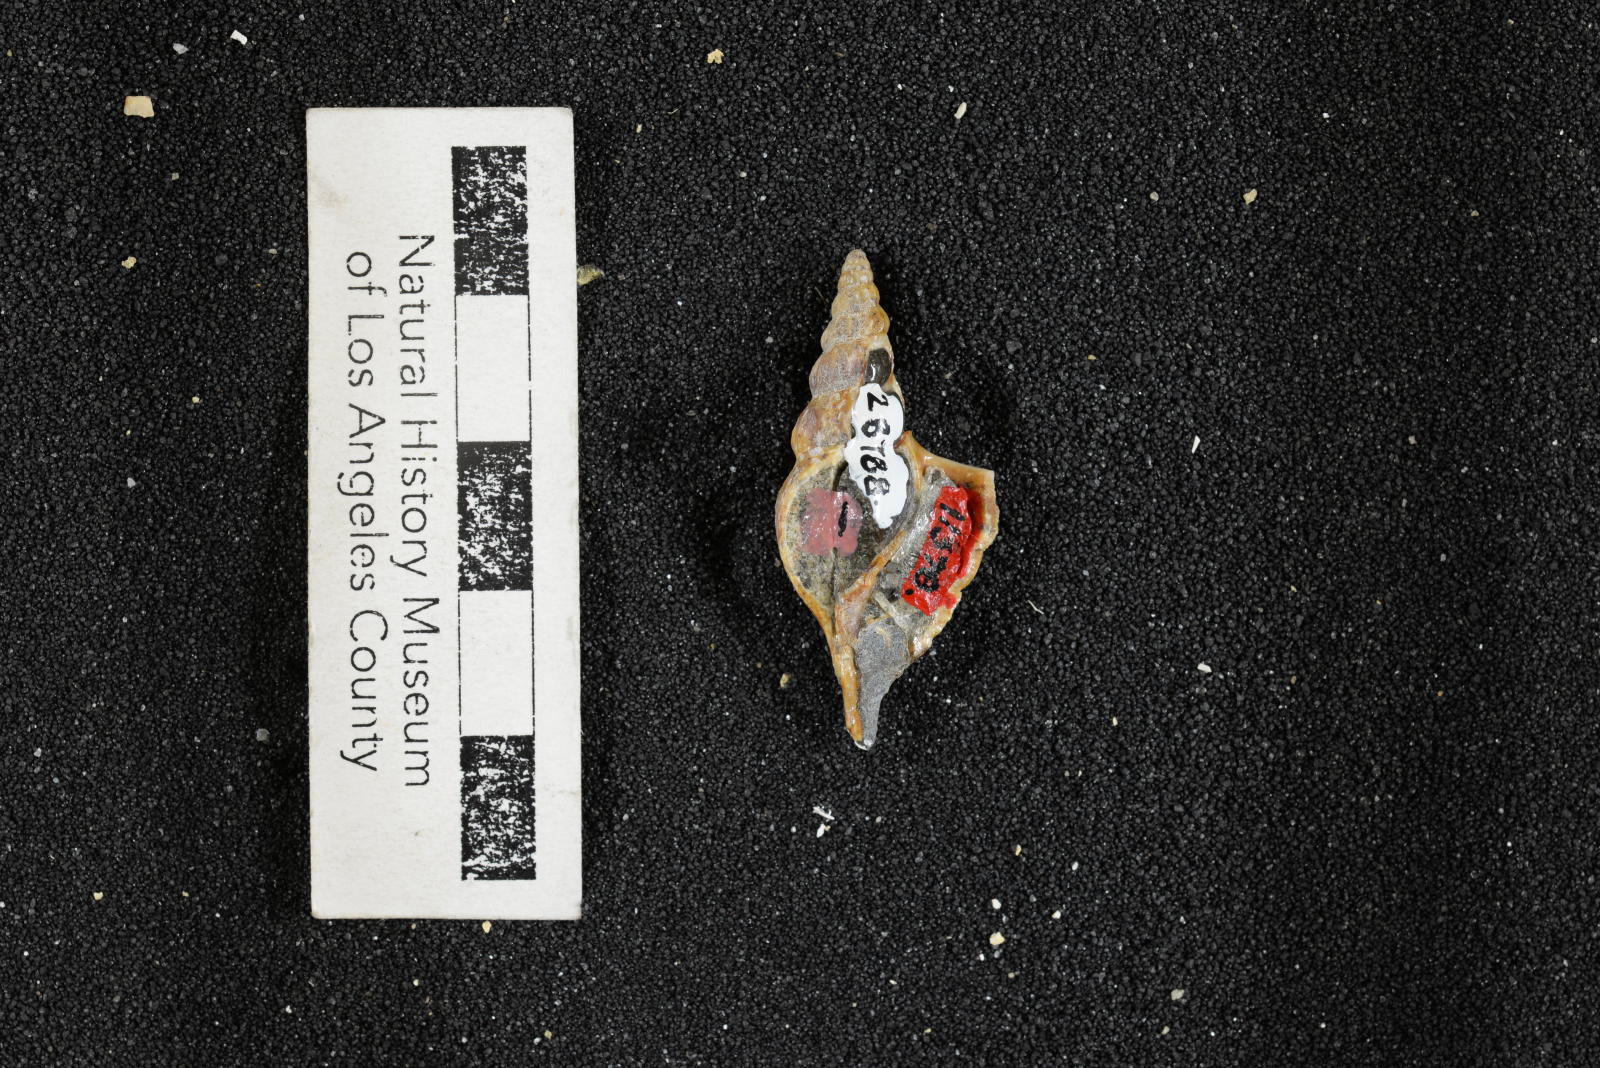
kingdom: Animalia
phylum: Mollusca
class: Gastropoda
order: Littorinimorpha
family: Aporrhaidae
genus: Latiala
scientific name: Latiala heliaca
